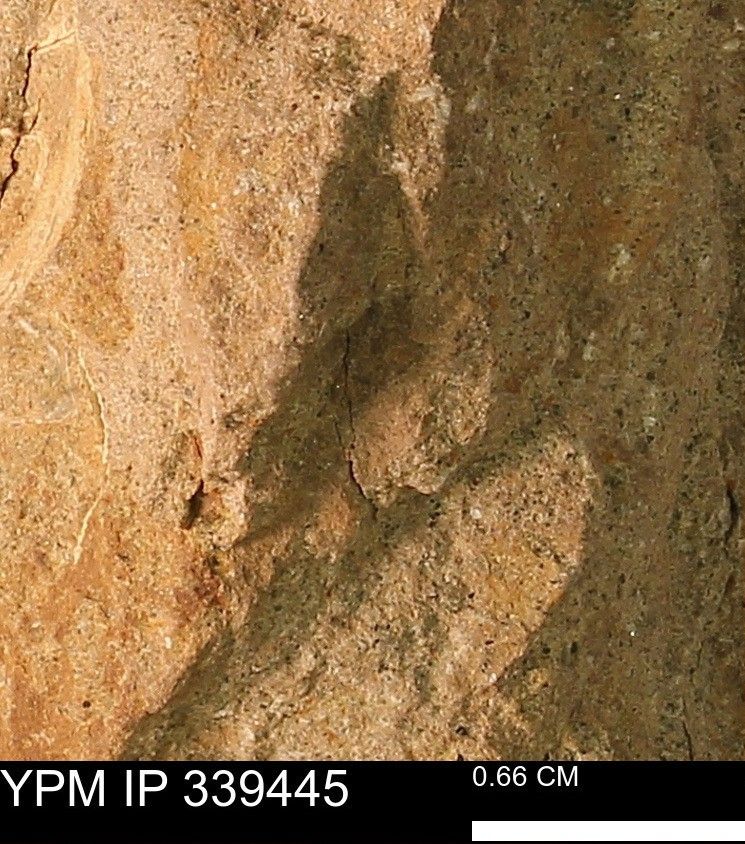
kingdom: Animalia
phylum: Mollusca
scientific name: Mollusca
